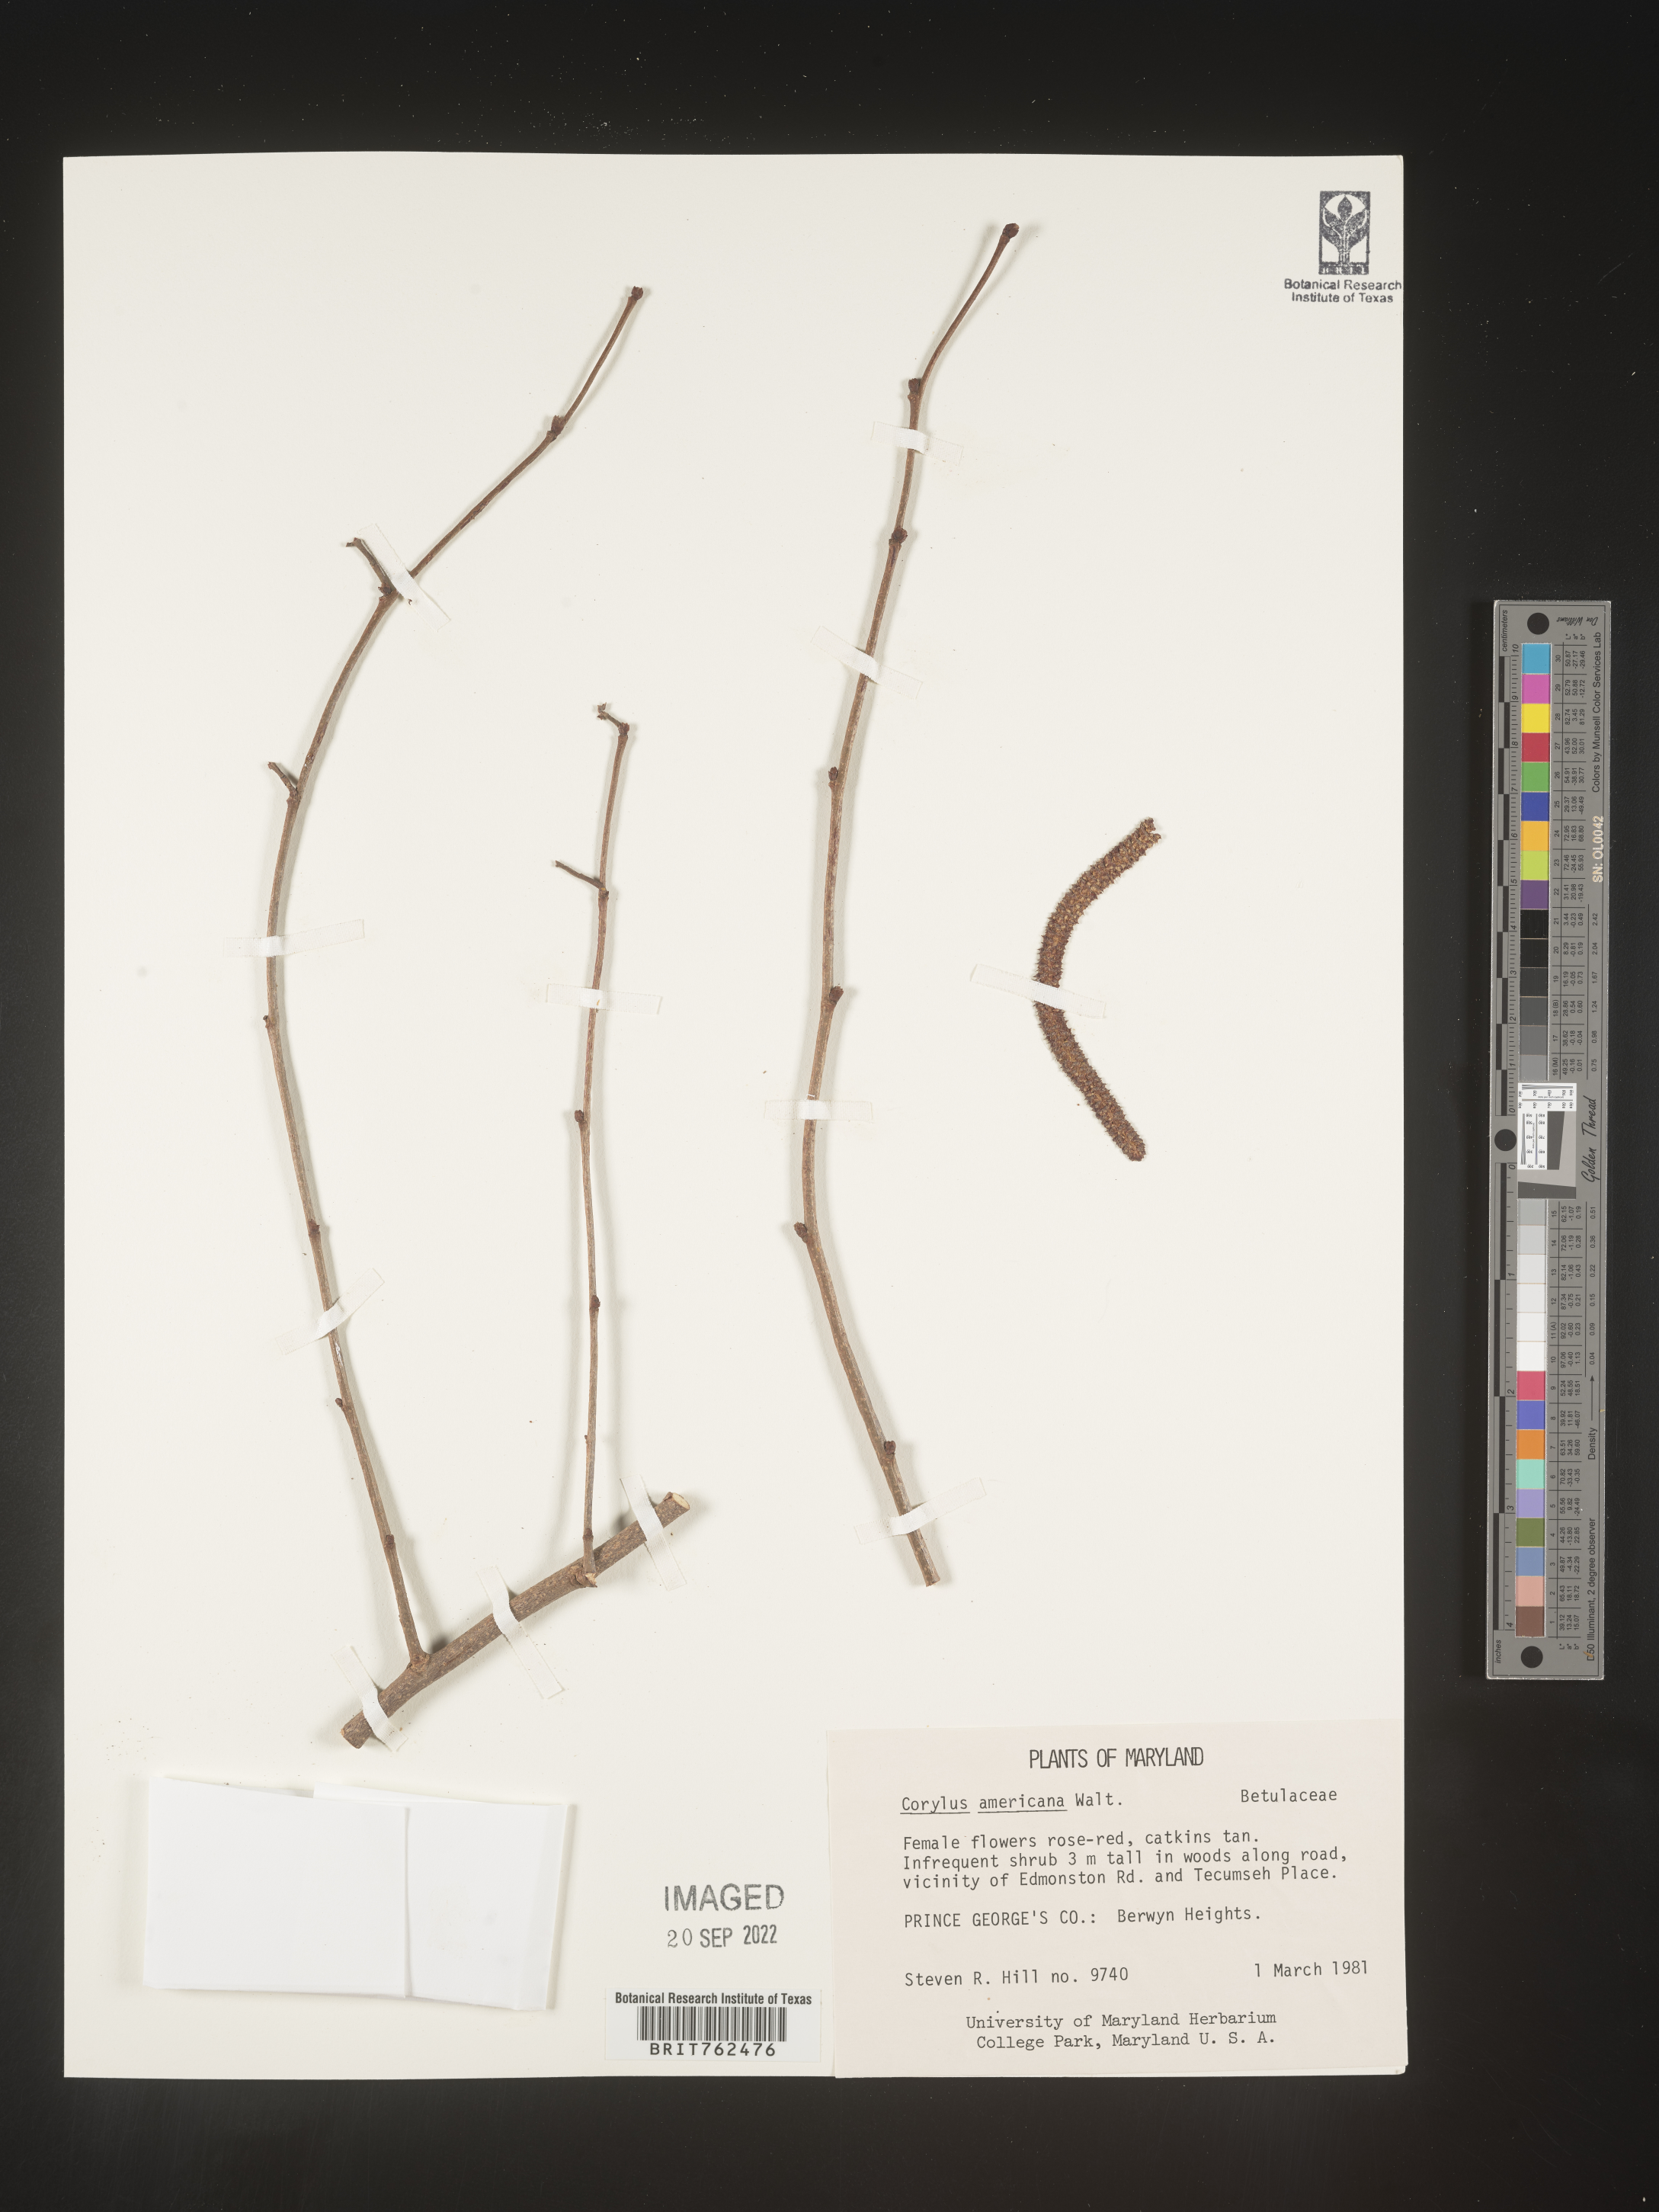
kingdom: Plantae
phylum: Tracheophyta
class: Magnoliopsida
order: Fagales
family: Betulaceae
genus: Corylus
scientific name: Corylus americana
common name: American hazel
